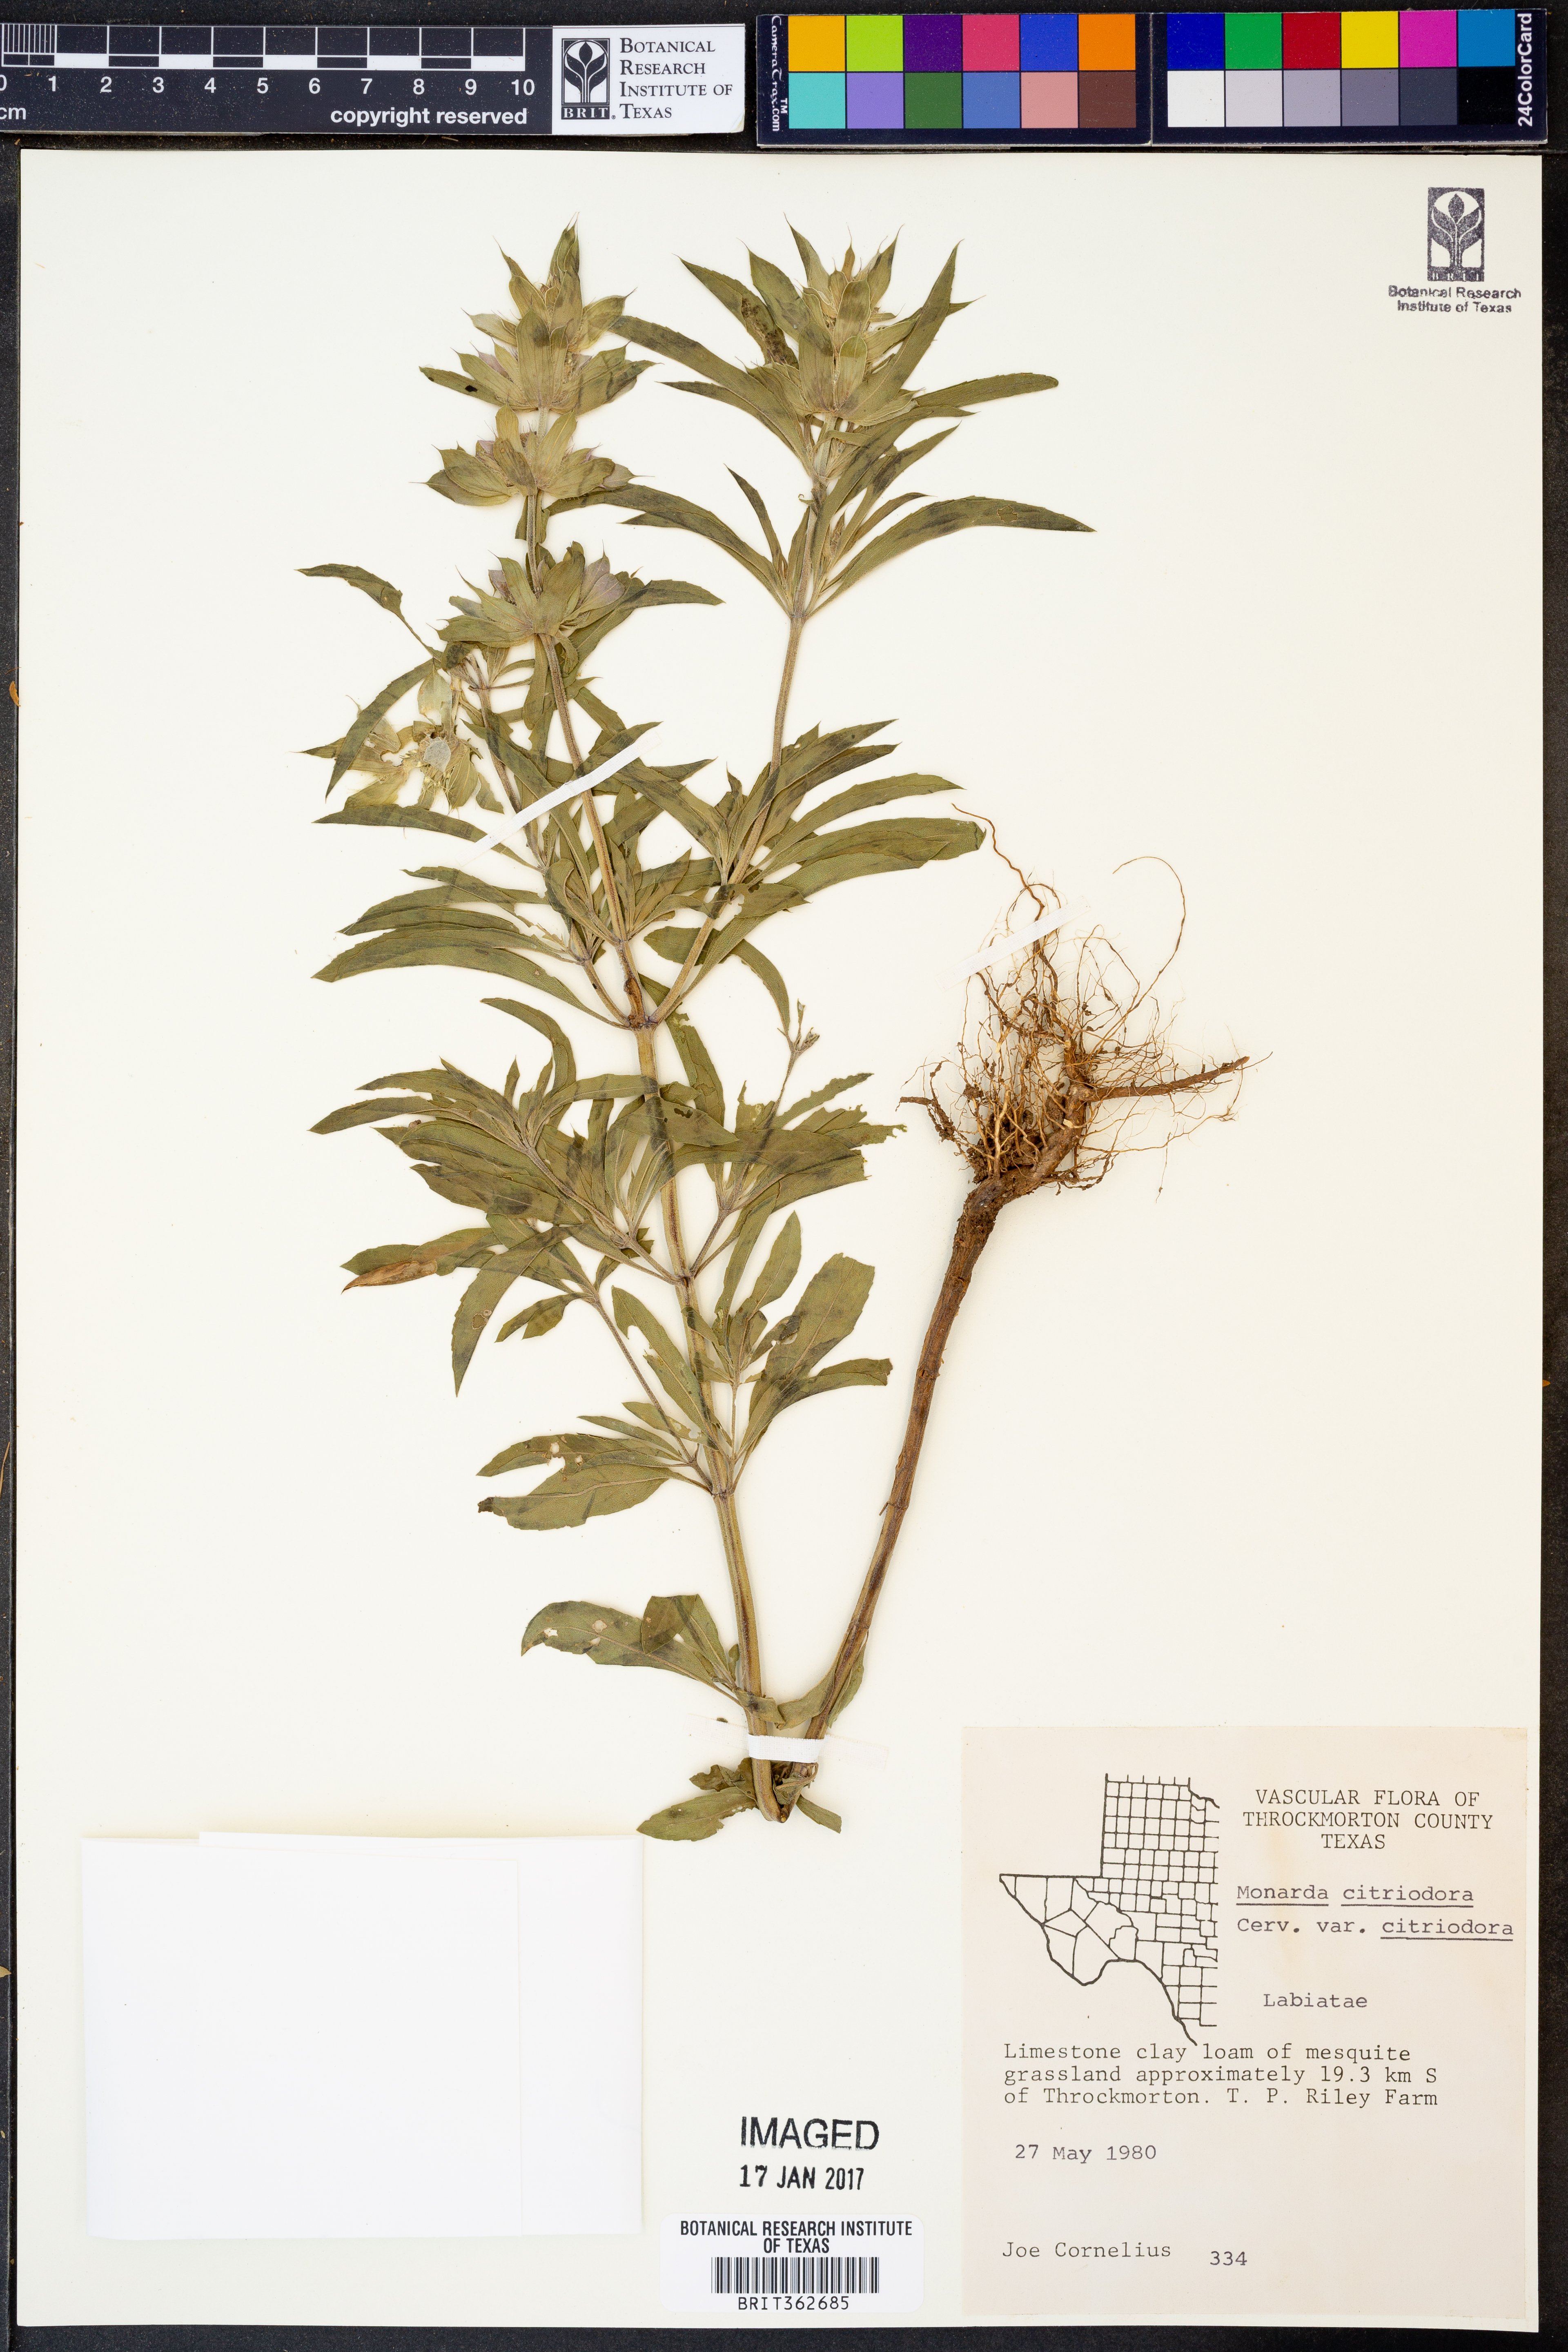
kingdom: Plantae
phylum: Tracheophyta
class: Magnoliopsida
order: Lamiales
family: Lamiaceae
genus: Monarda
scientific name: Monarda citriodora
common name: Lemon beebalm
